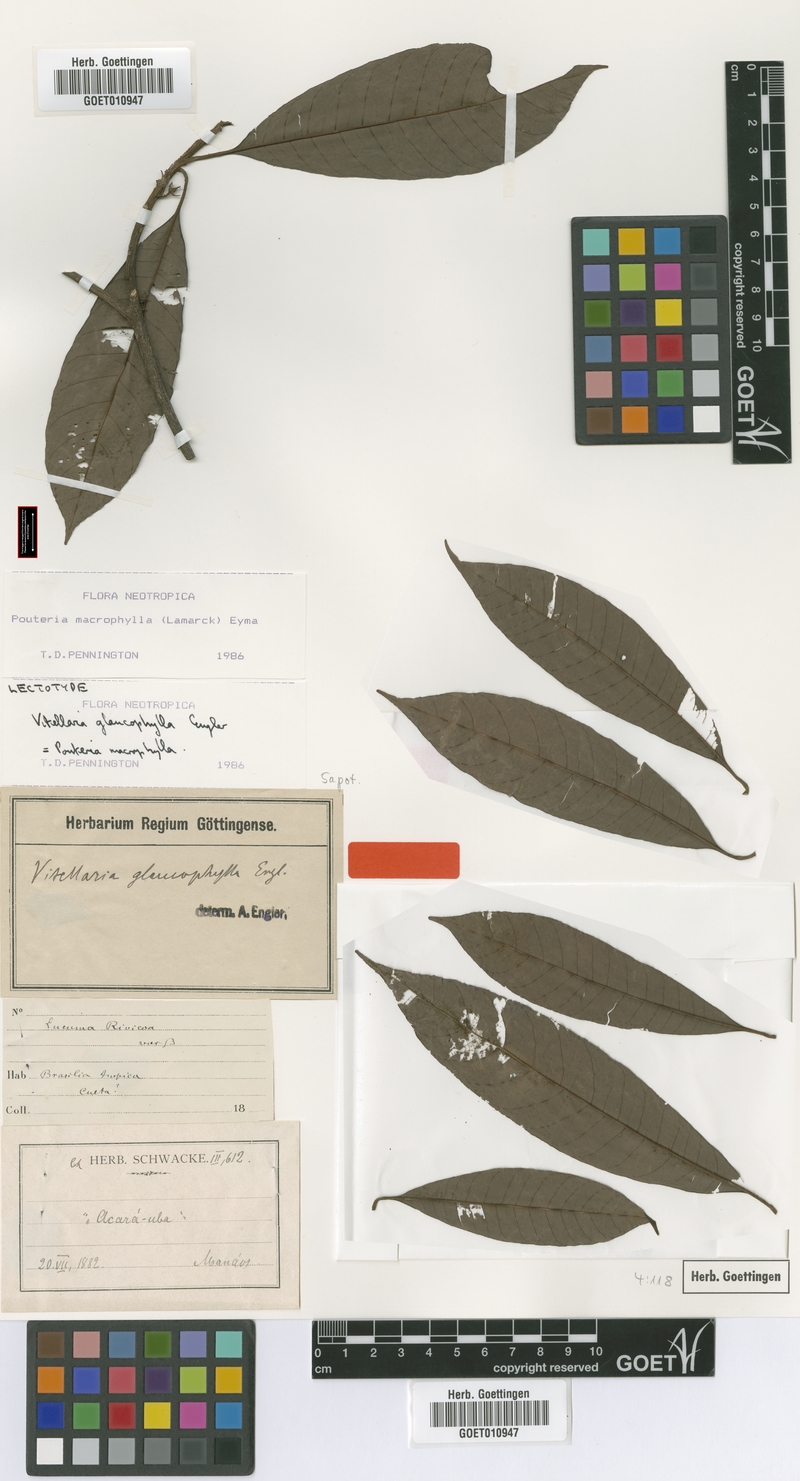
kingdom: Plantae
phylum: Tracheophyta
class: Magnoliopsida
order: Ericales
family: Sapotaceae
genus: Pouteria
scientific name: Pouteria macrophylla
